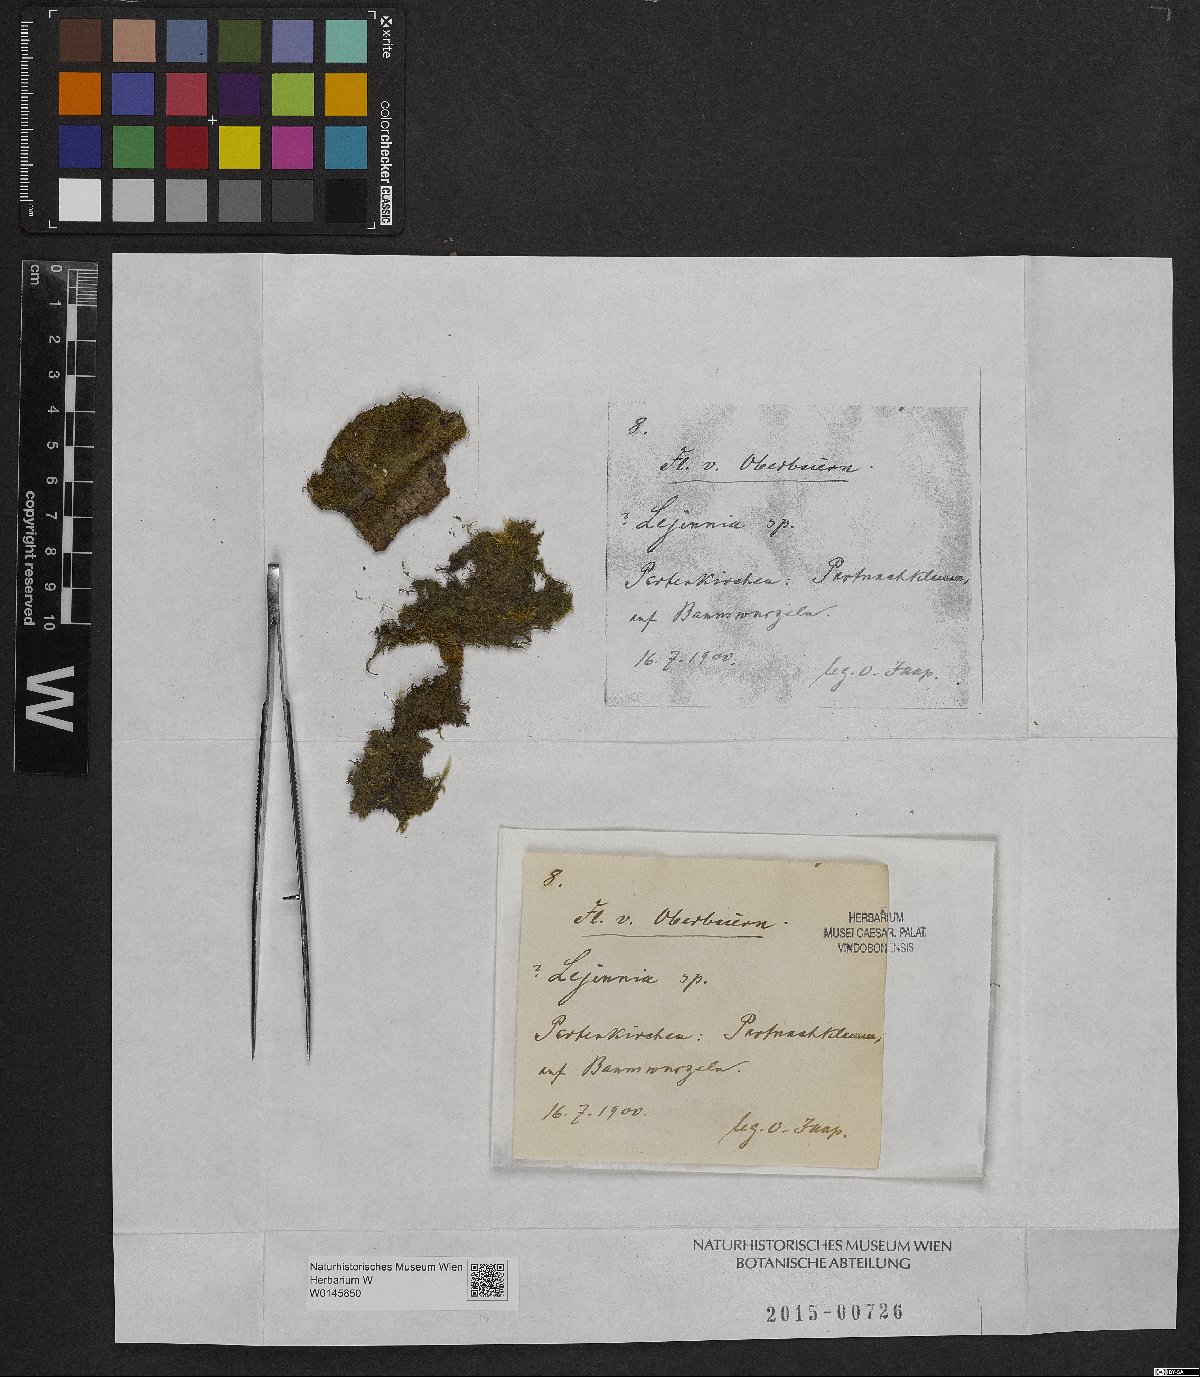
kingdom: Plantae
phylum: Marchantiophyta
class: Jungermanniopsida
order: Porellales
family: Lejeuneaceae
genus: Lejeunea
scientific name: Lejeunea
